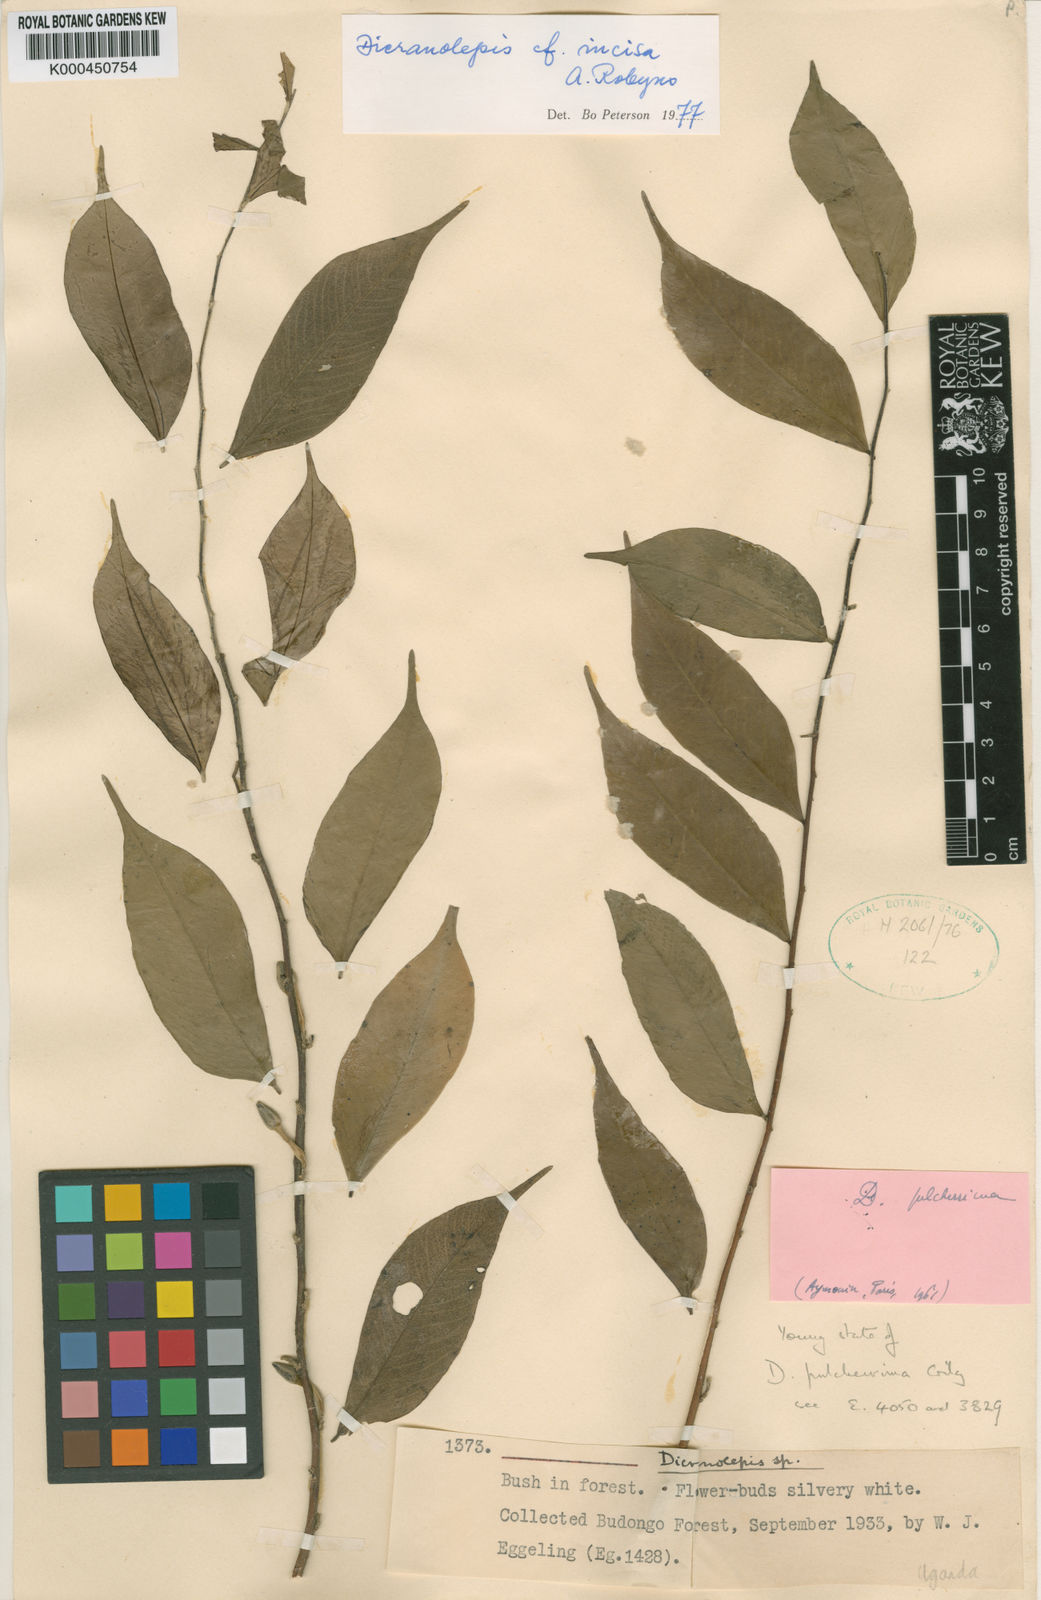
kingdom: Plantae
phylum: Tracheophyta
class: Magnoliopsida
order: Malvales
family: Thymelaeaceae
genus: Dicranolepis
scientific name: Dicranolepis incisa
